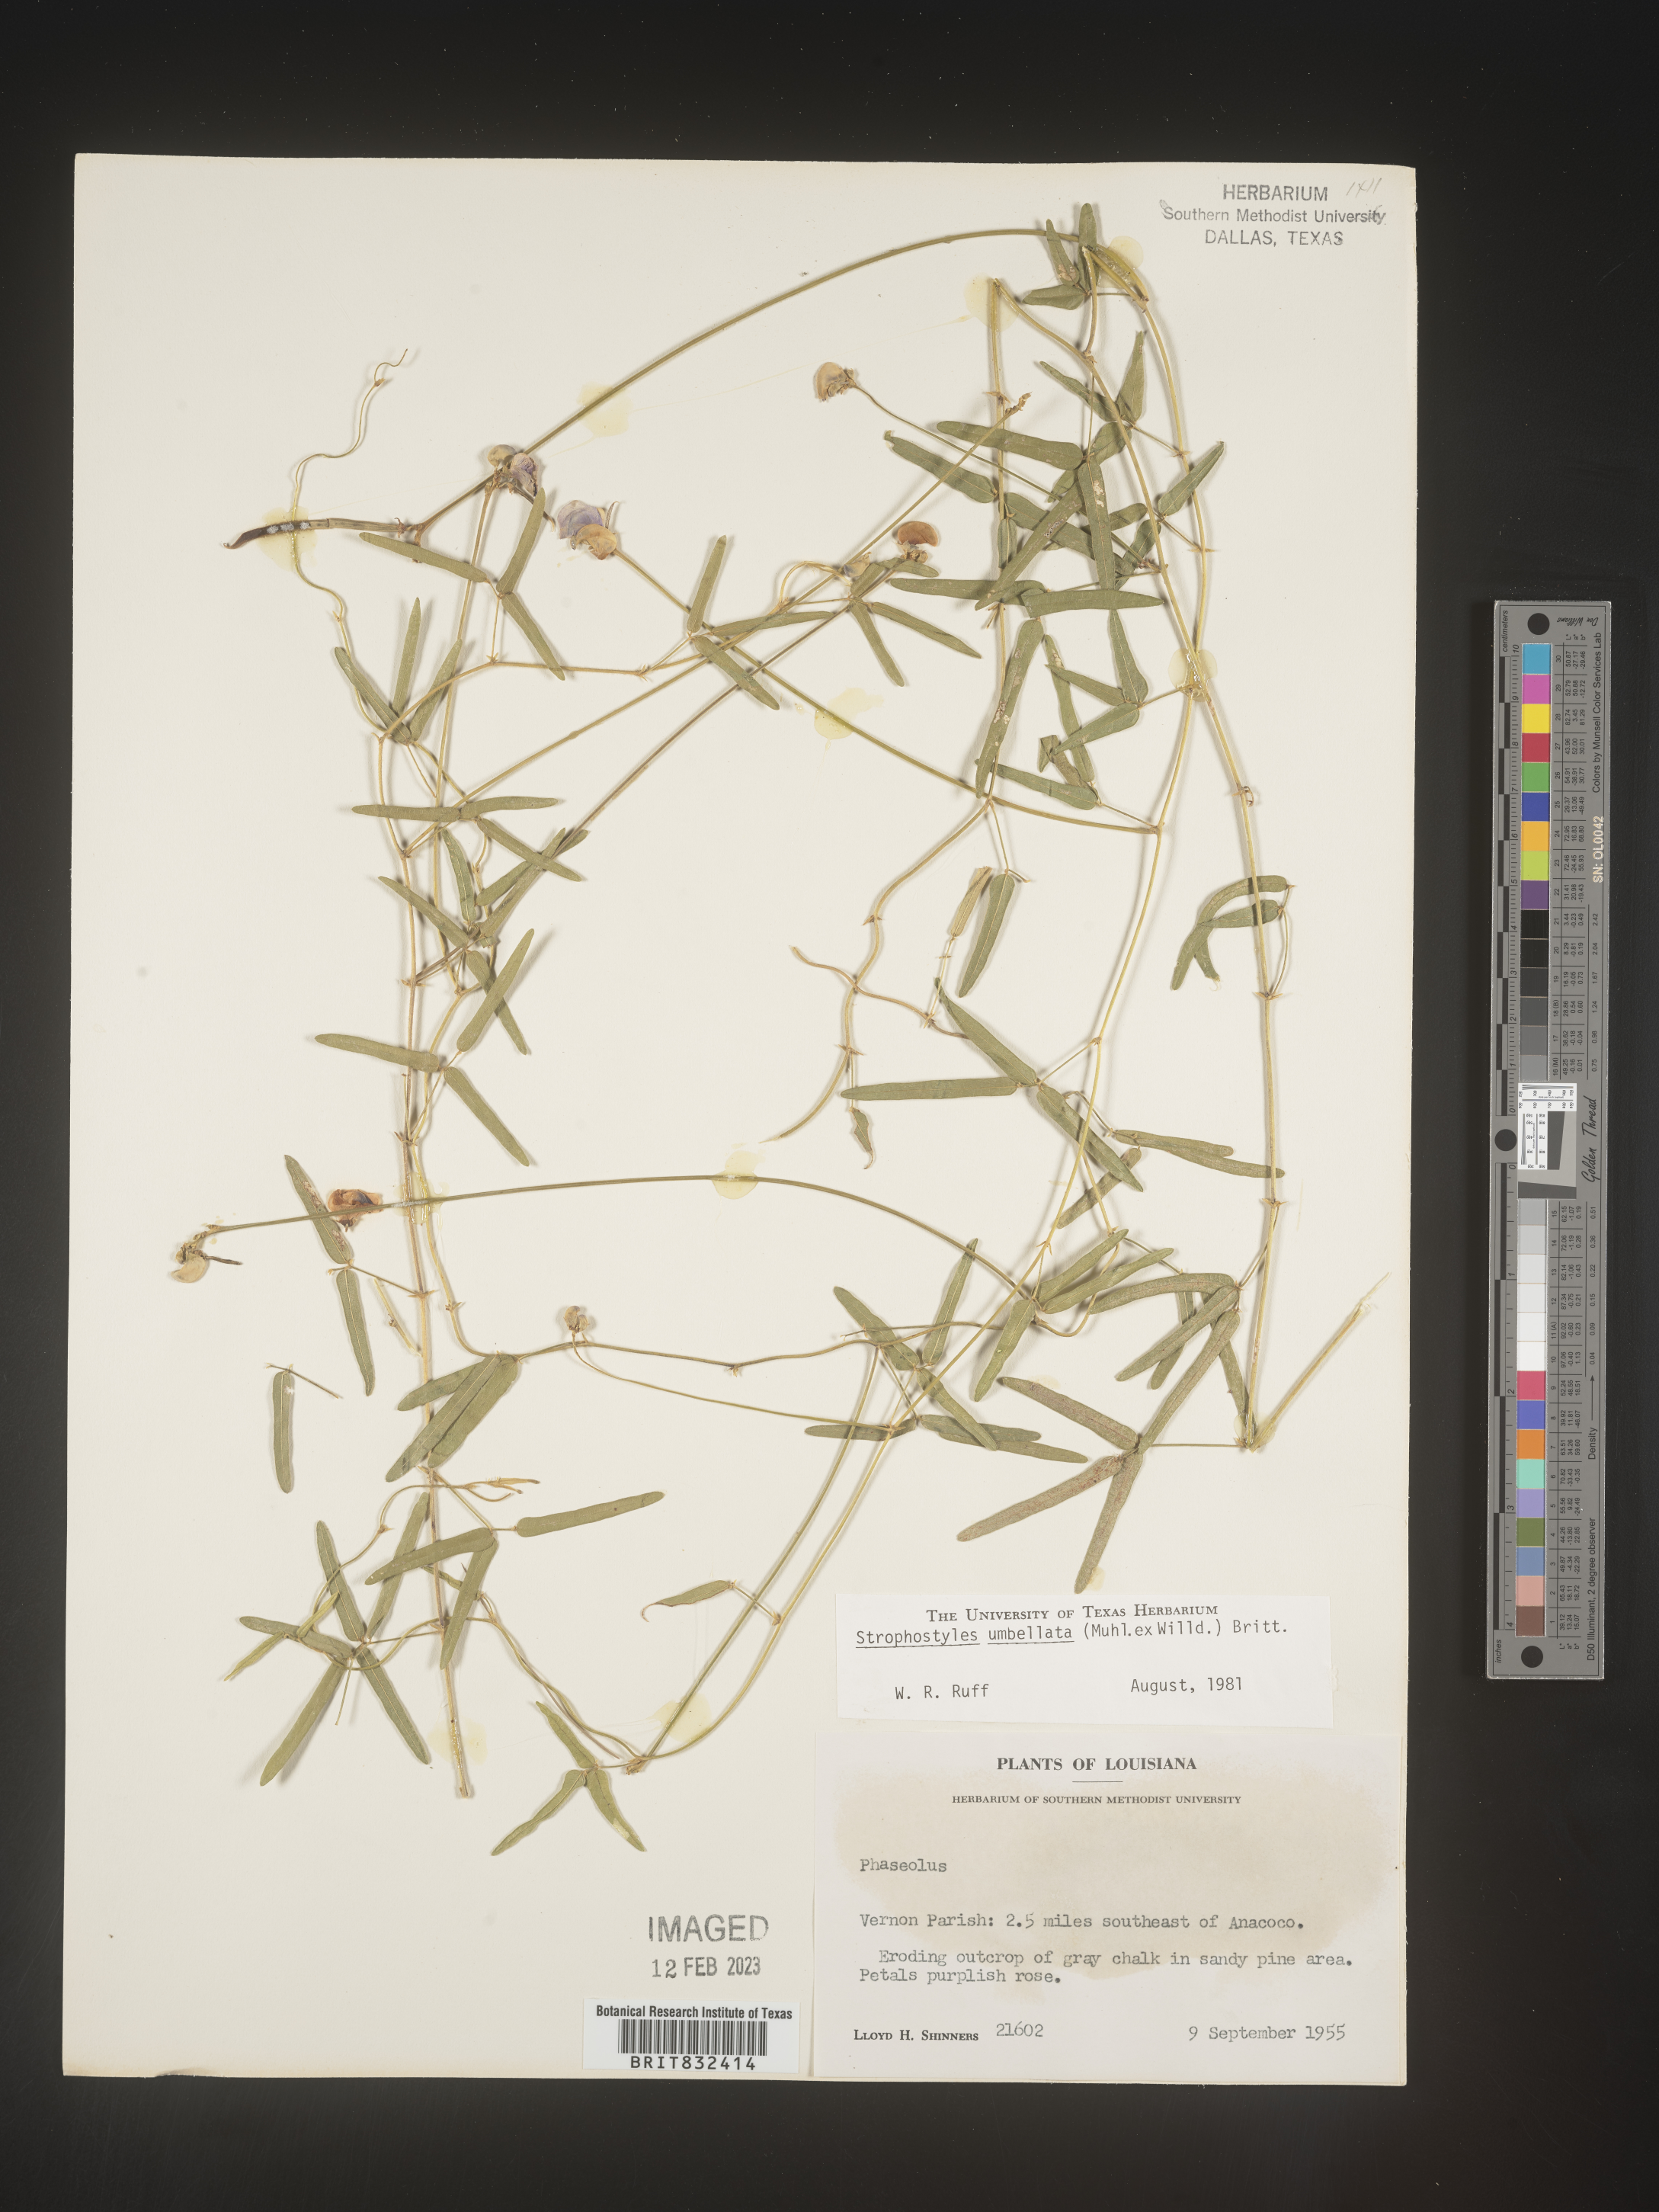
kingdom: Plantae
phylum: Tracheophyta
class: Magnoliopsida
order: Fabales
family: Fabaceae
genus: Strophostyles
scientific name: Strophostyles umbellata
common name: Perennial wild bean
